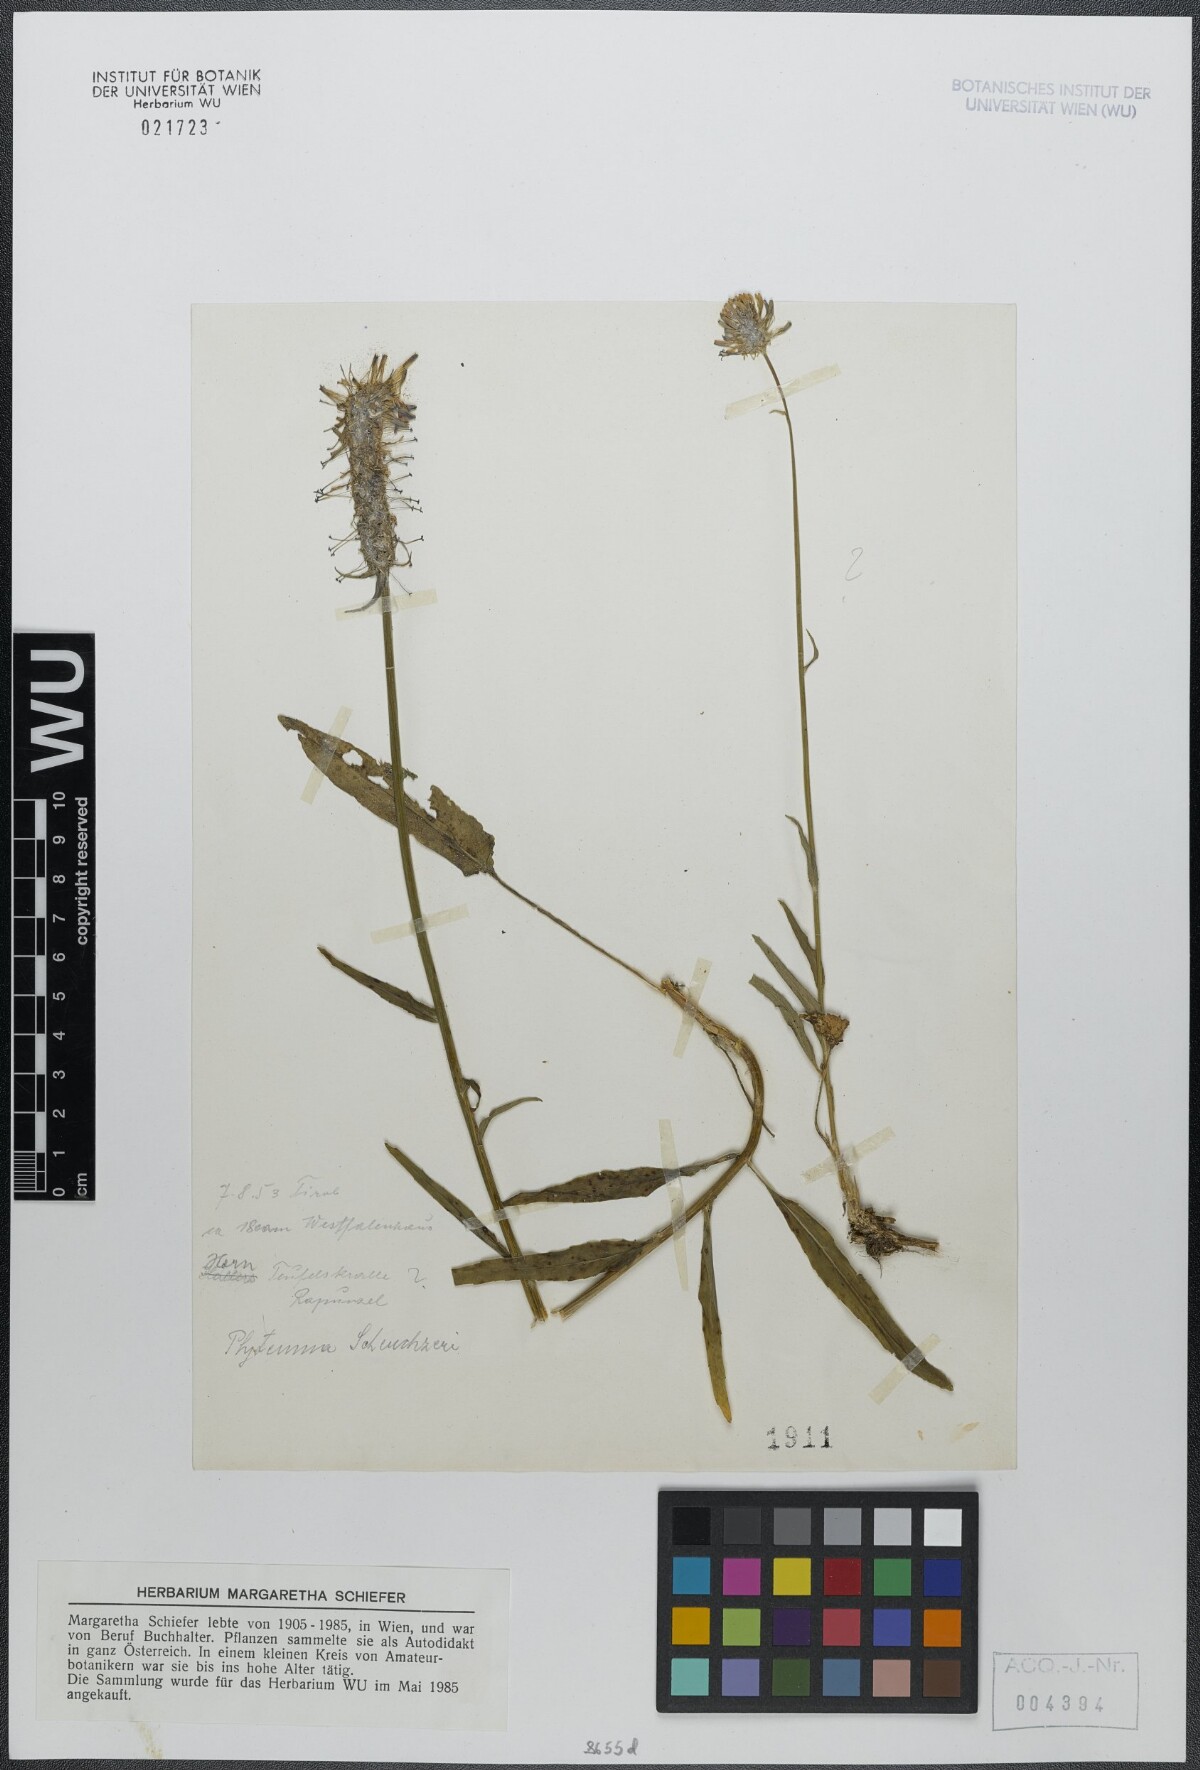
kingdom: Plantae
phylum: Tracheophyta
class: Magnoliopsida
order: Asterales
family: Campanulaceae
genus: Phyteuma
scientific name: Phyteuma scheuchzeri
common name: Oxford rampion
